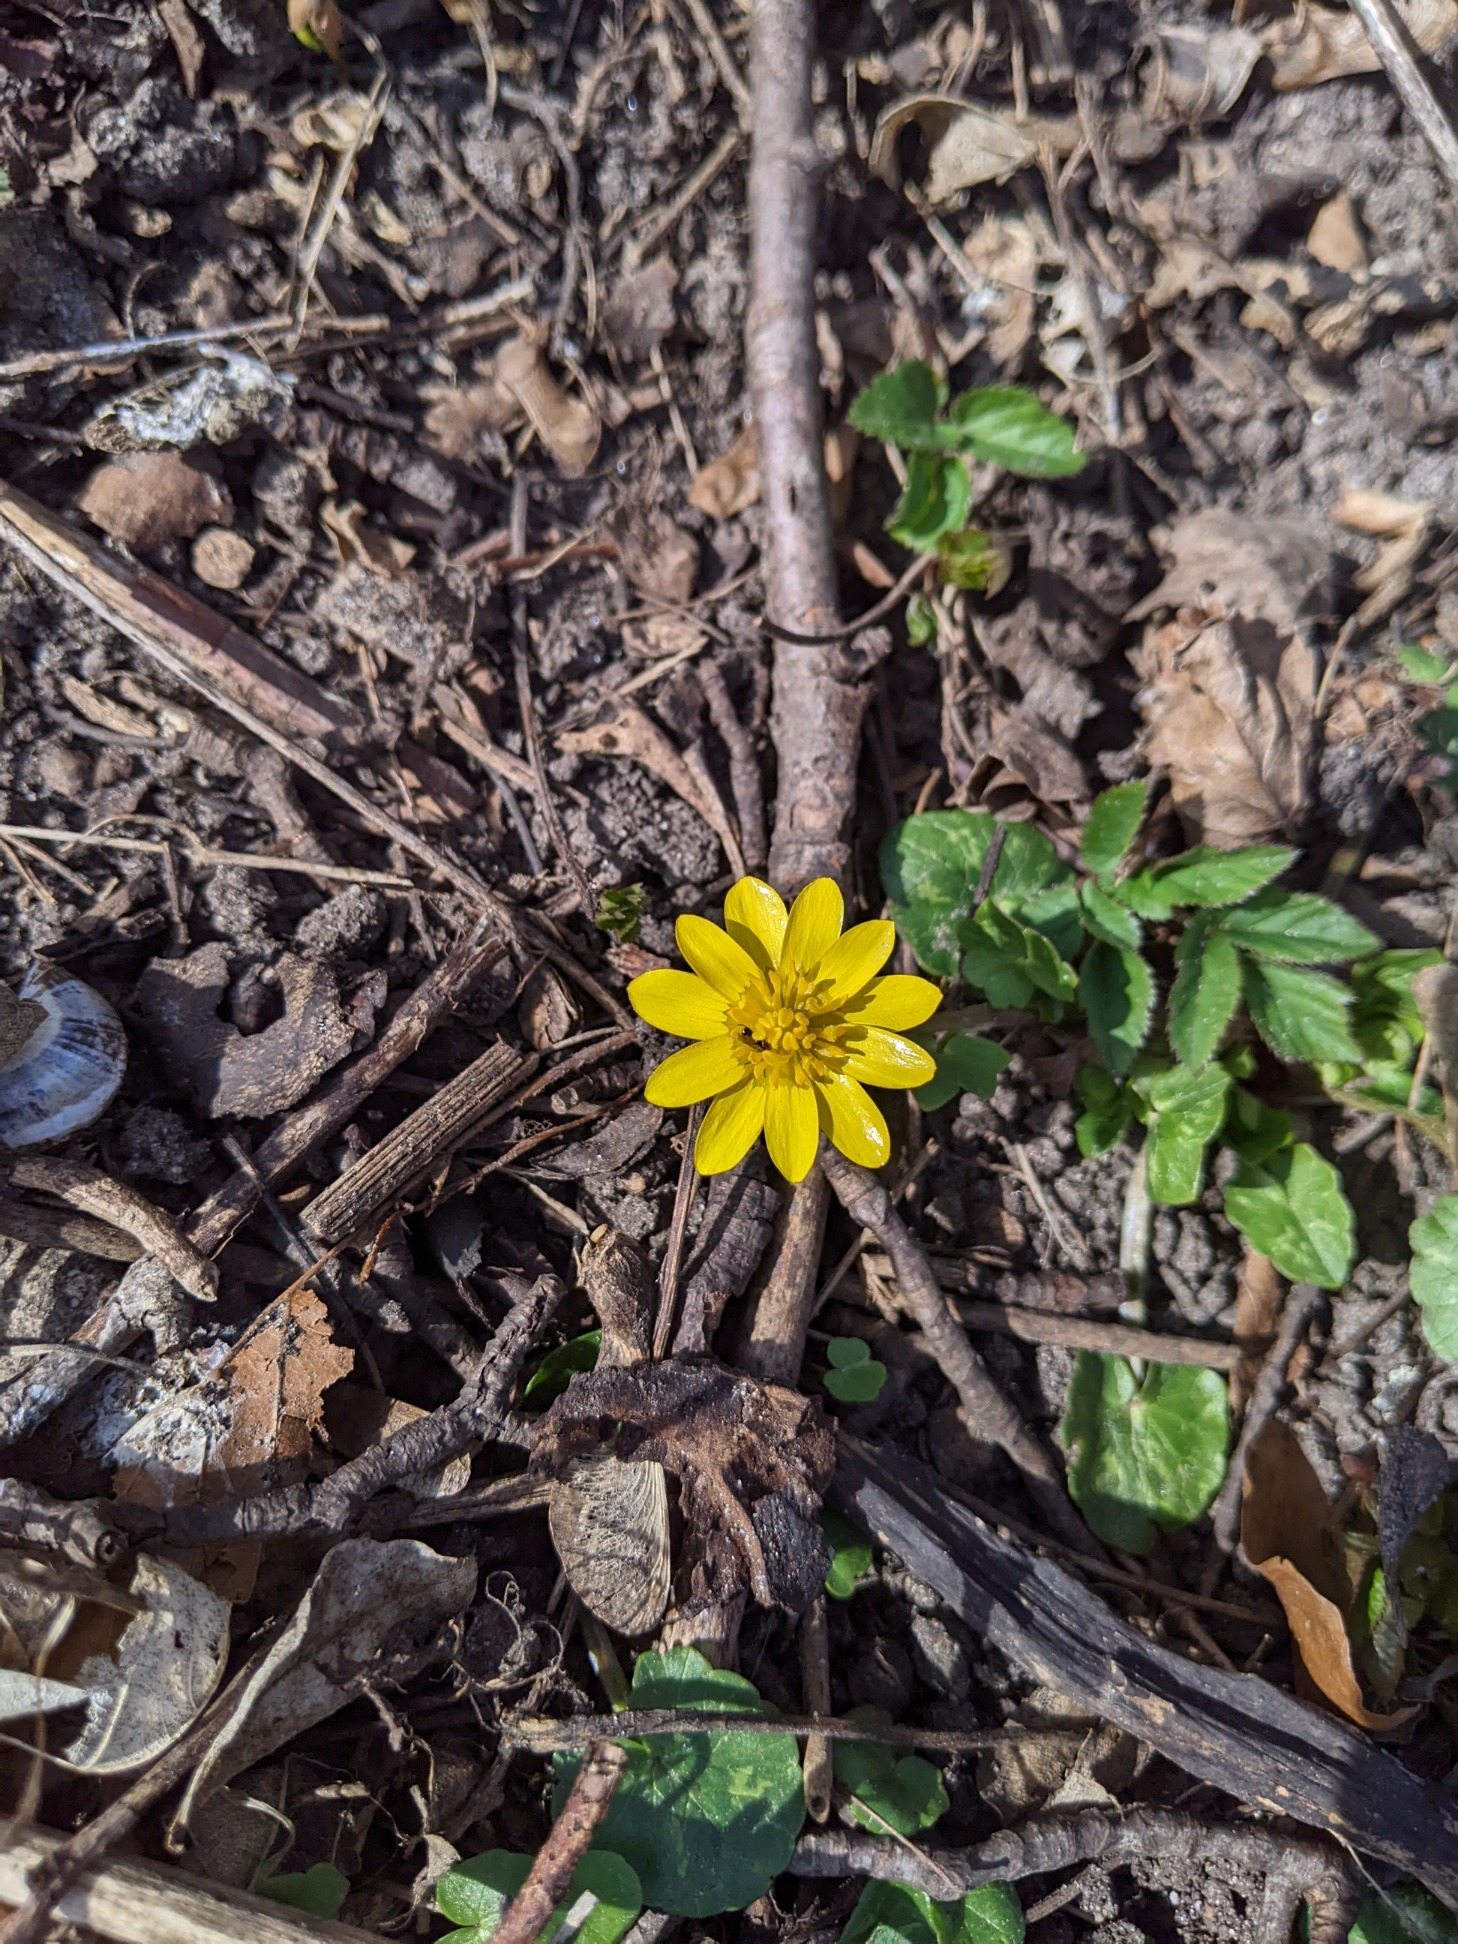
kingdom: Plantae
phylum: Tracheophyta
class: Magnoliopsida
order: Ranunculales
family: Ranunculaceae
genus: Ficaria
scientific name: Ficaria verna
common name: Vorterod
